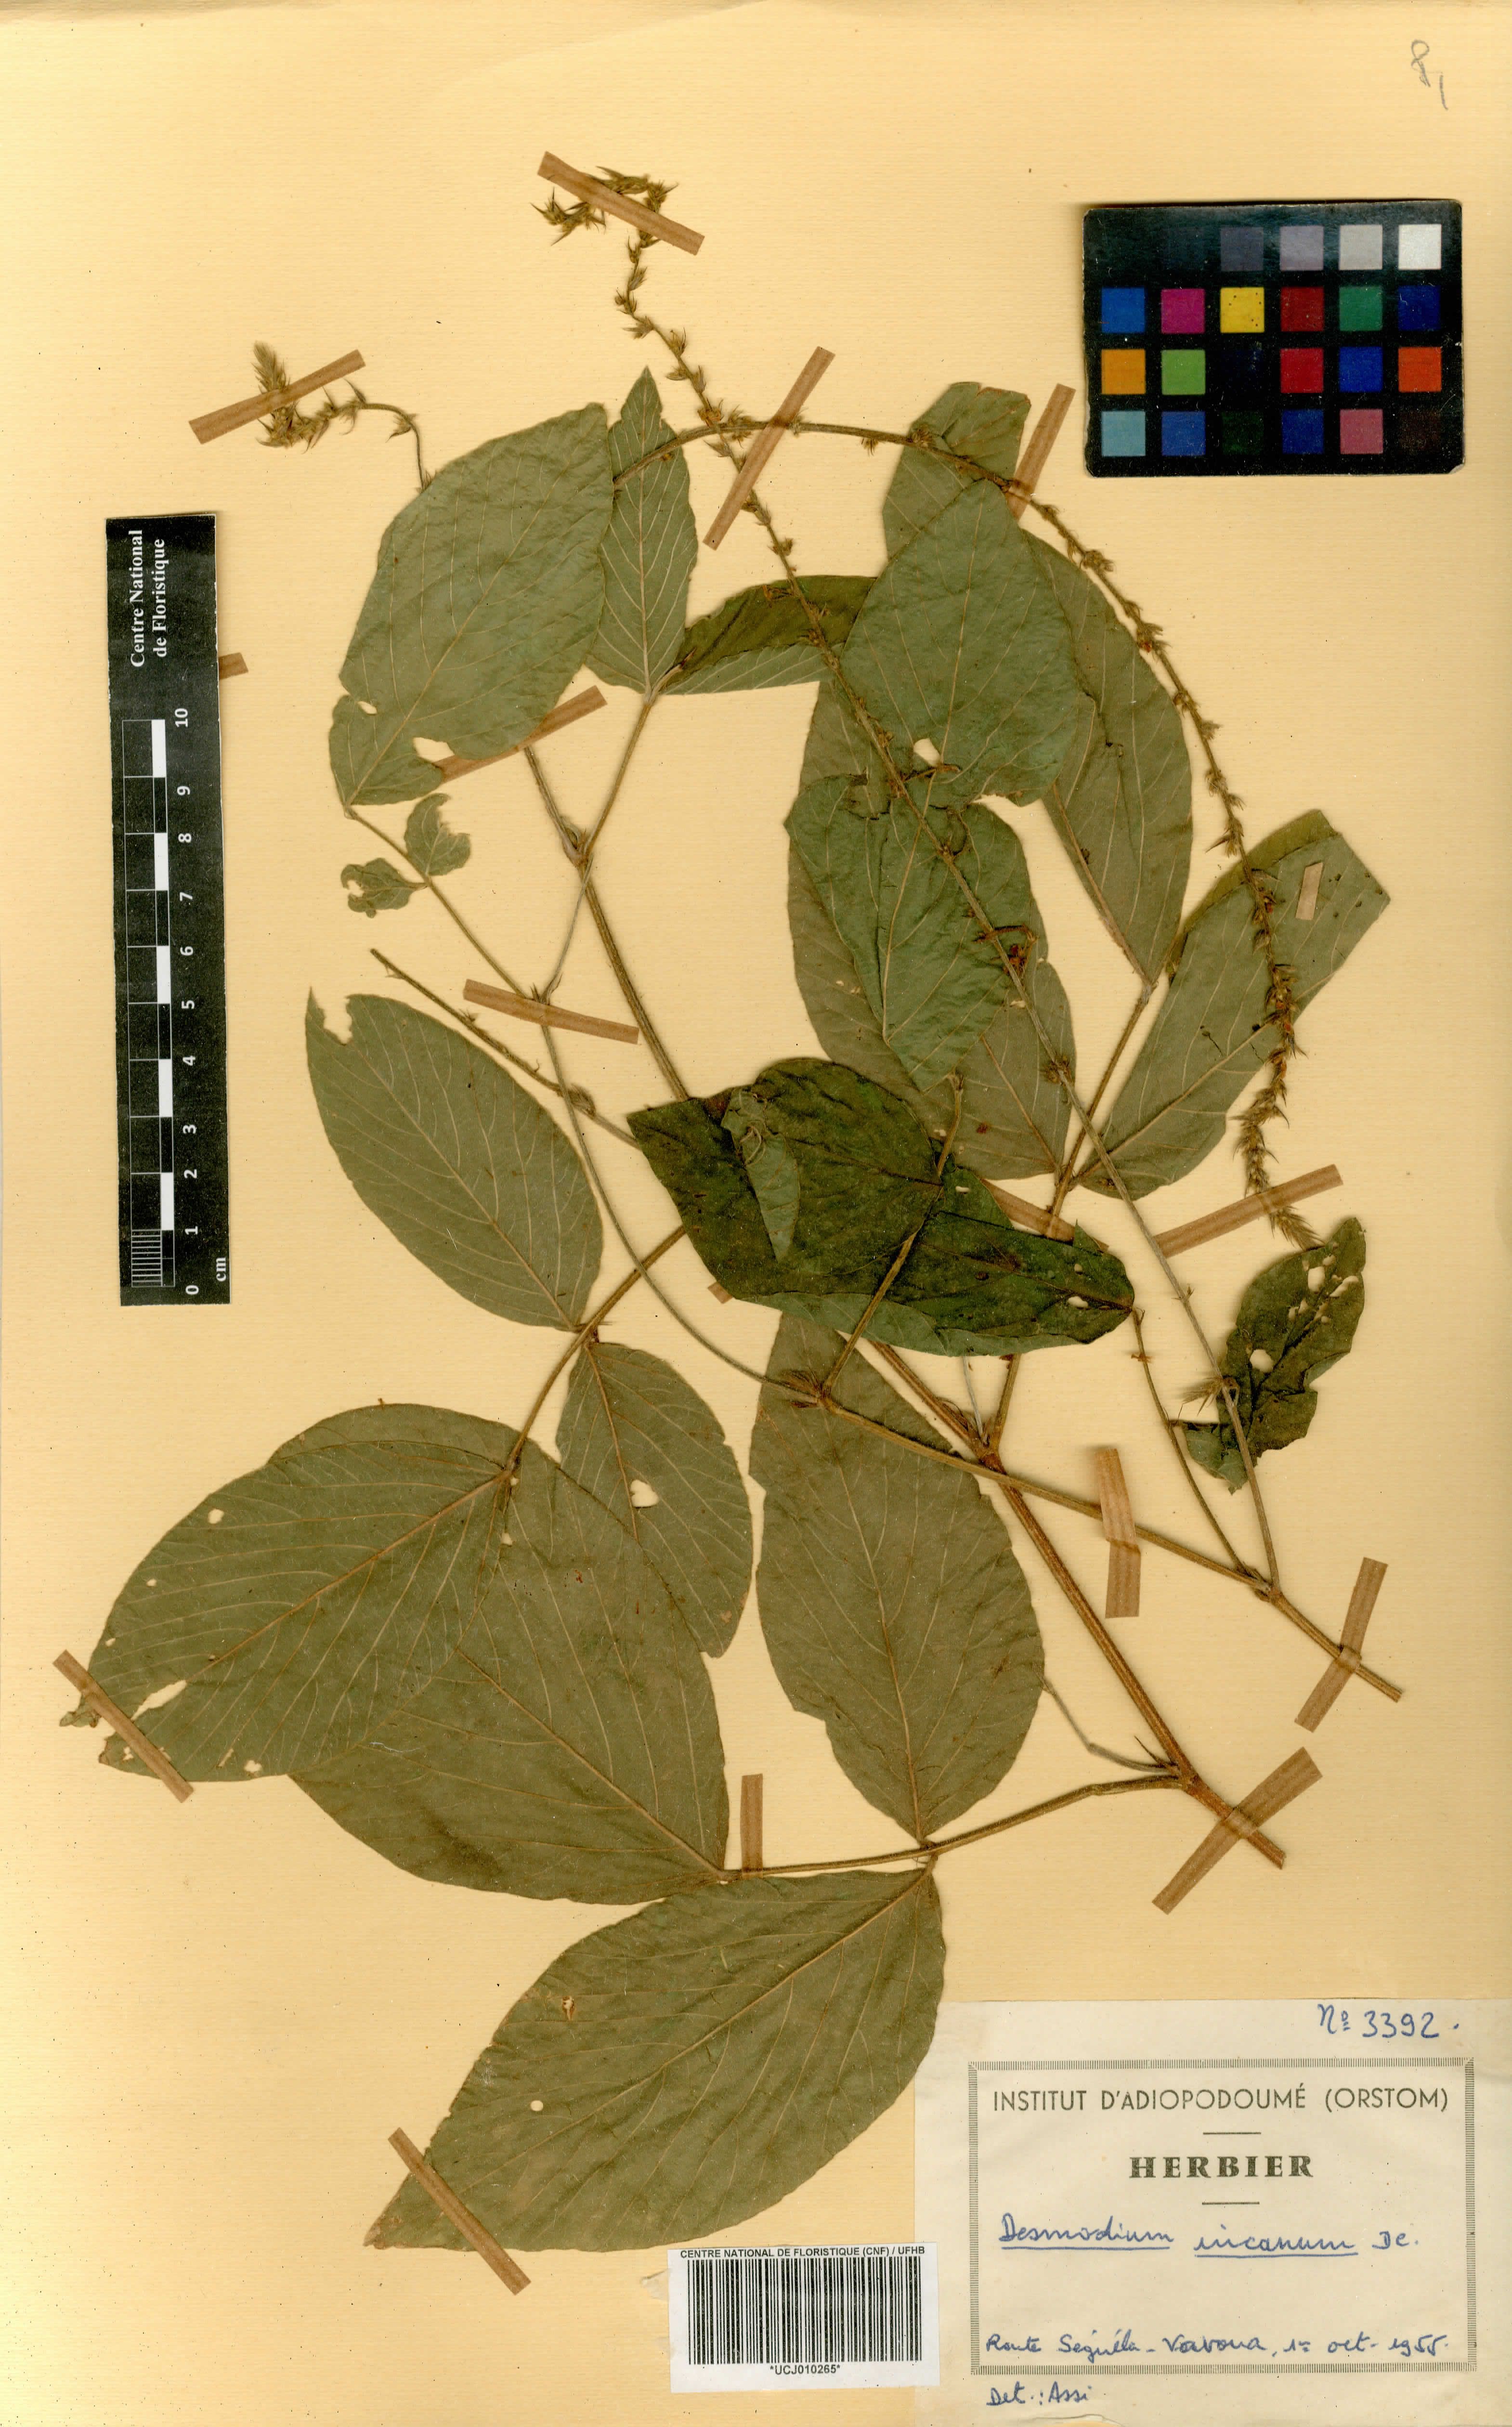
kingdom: Plantae
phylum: Tracheophyta
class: Magnoliopsida
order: Fabales
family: Fabaceae
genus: Desmodium
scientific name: Desmodium incanum
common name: Tickclover
